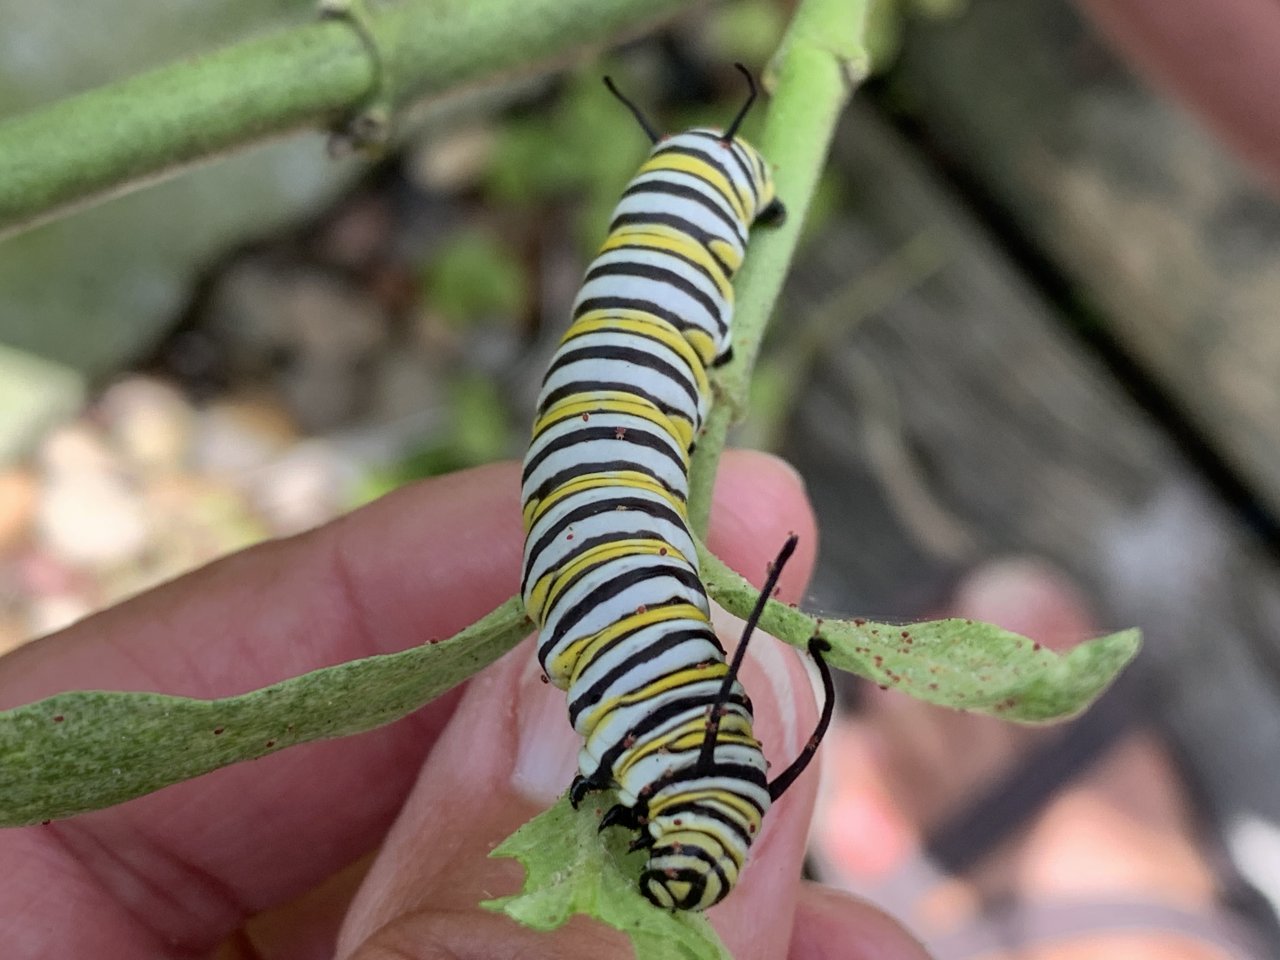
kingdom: Animalia
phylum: Arthropoda
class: Insecta
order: Lepidoptera
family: Nymphalidae
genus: Danaus
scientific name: Danaus plexippus
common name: Monarch
